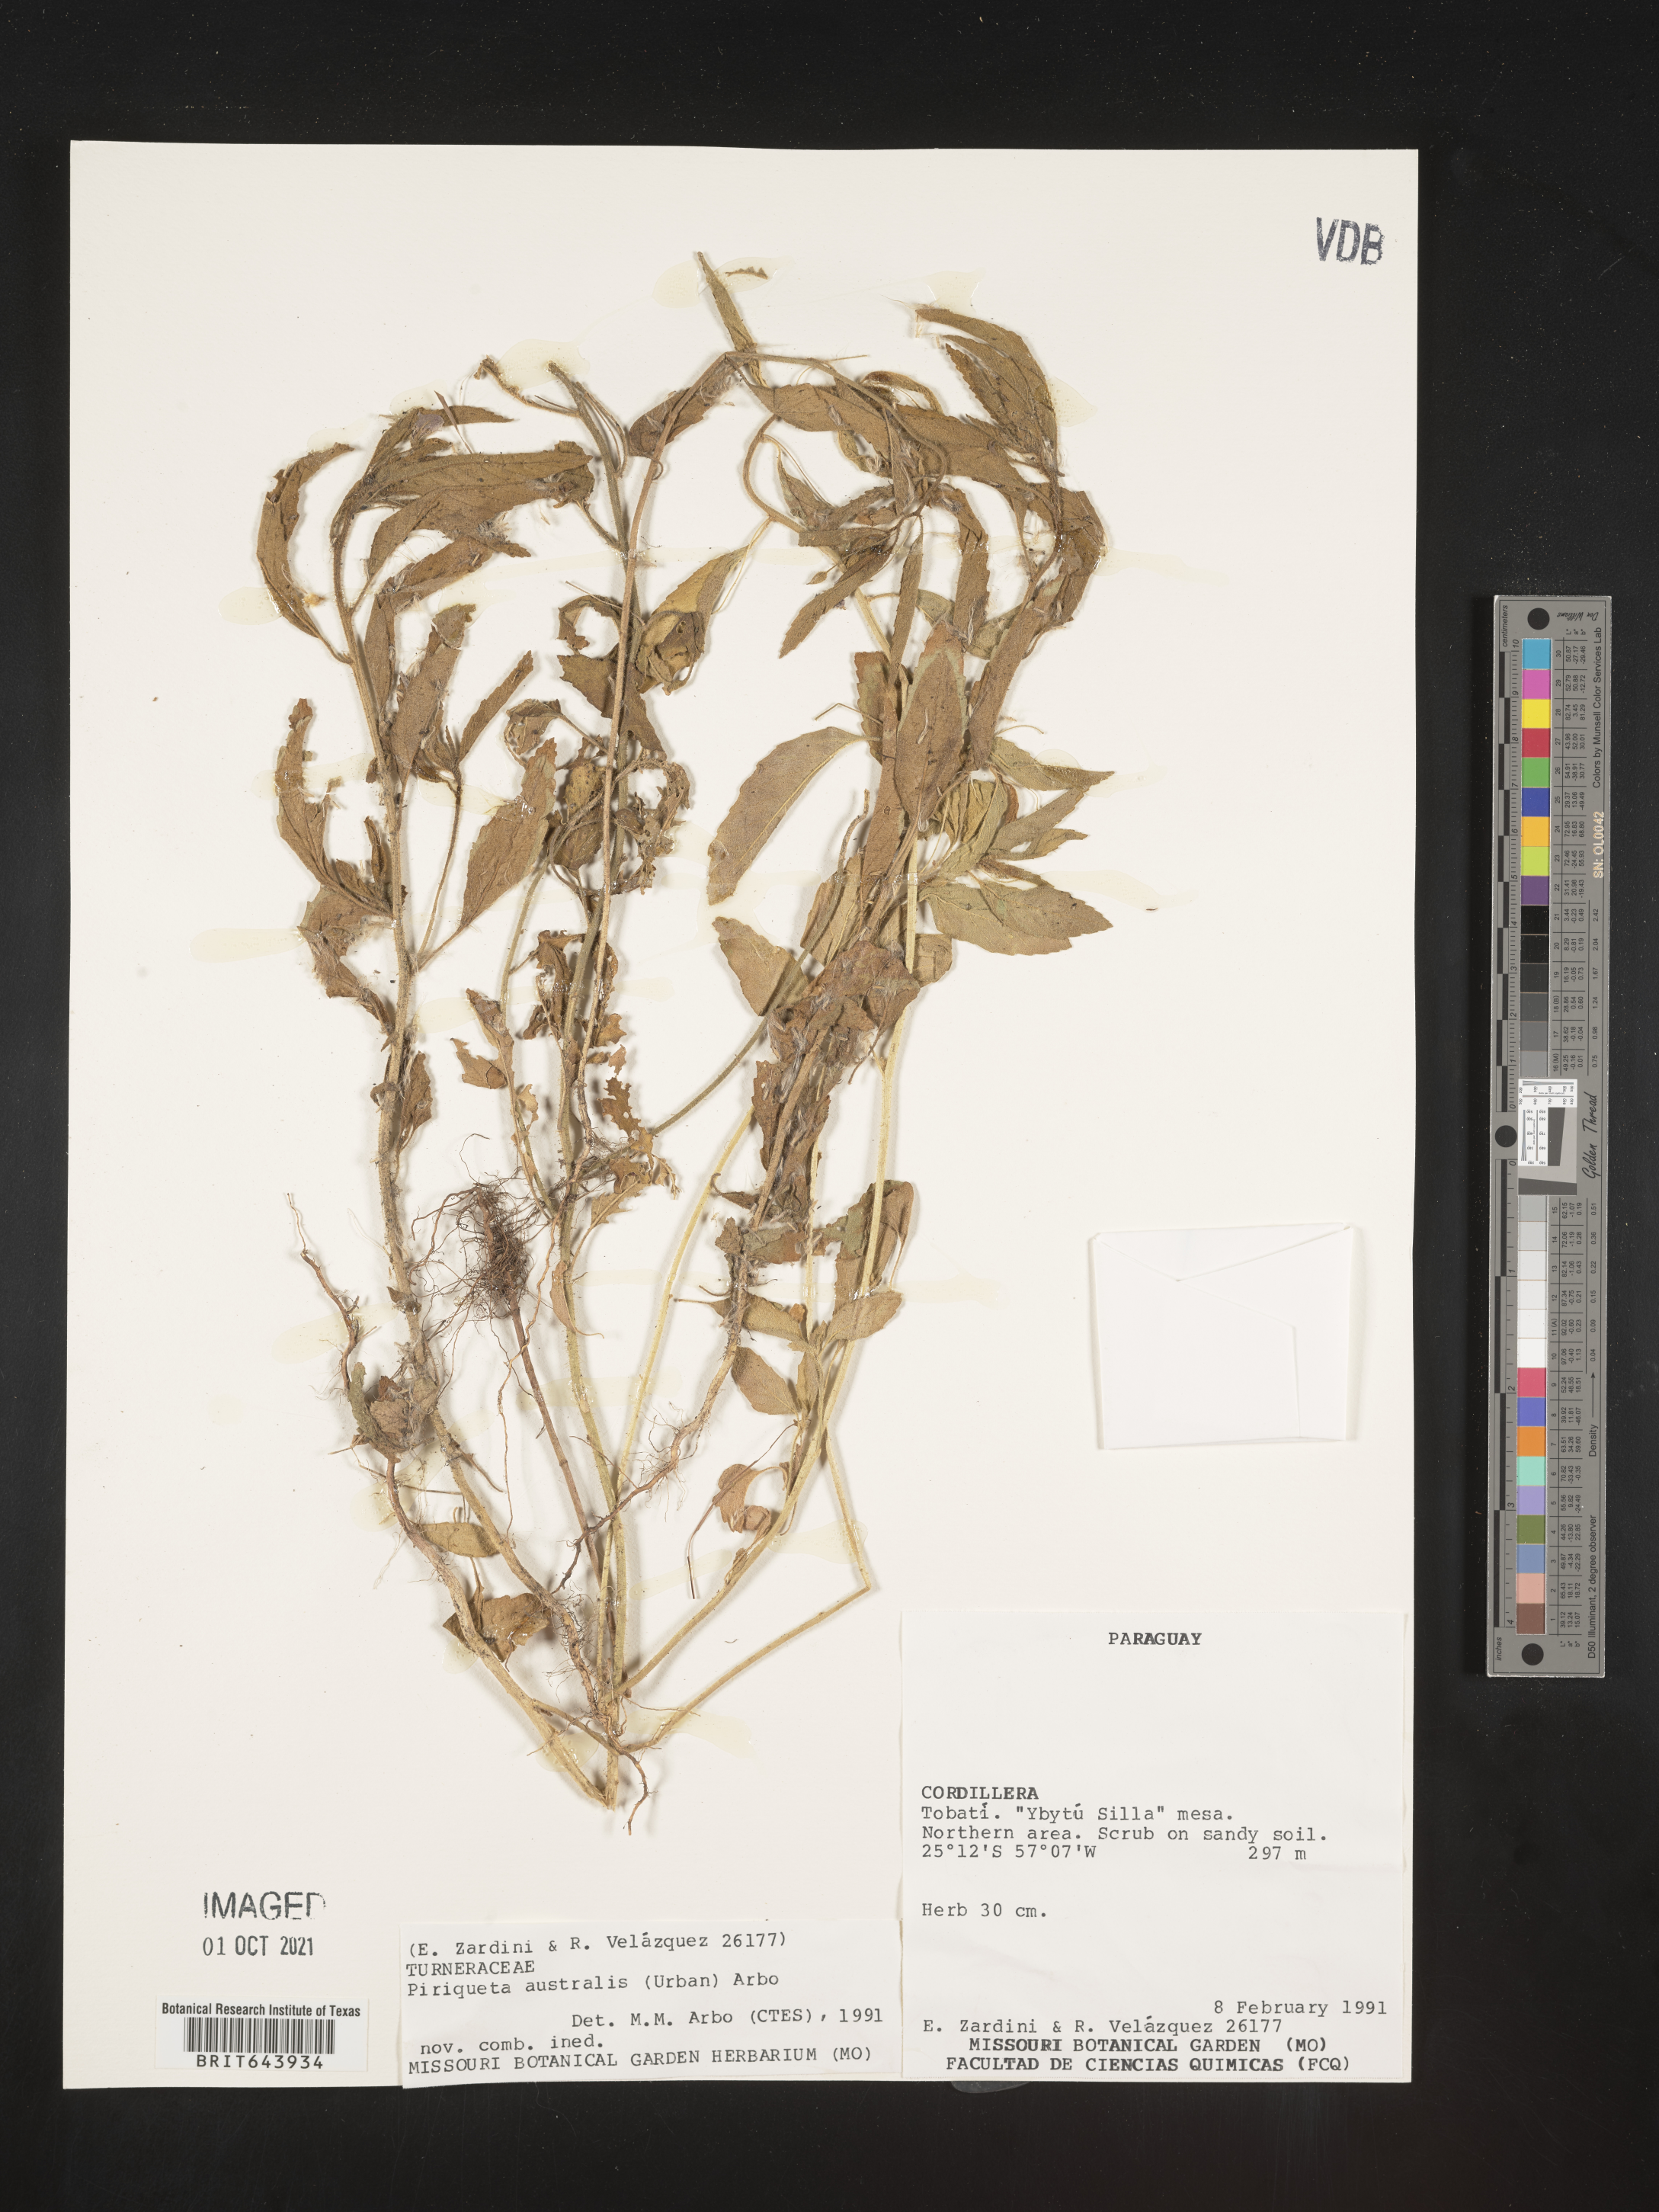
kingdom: Plantae
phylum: Tracheophyta
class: Magnoliopsida
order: Malpighiales
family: Turneraceae
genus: Piriqueta
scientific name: Piriqueta
